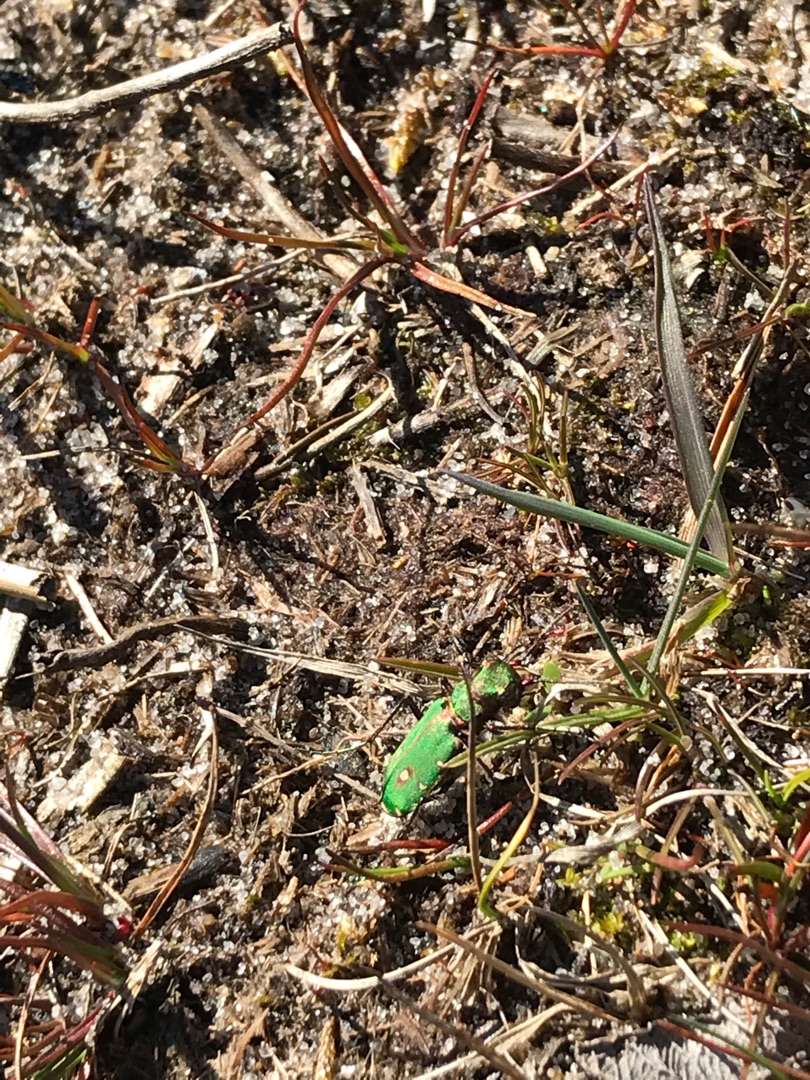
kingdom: Animalia
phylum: Arthropoda
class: Insecta
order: Coleoptera
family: Carabidae
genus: Cicindela
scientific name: Cicindela campestris
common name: Grøn sandspringer
